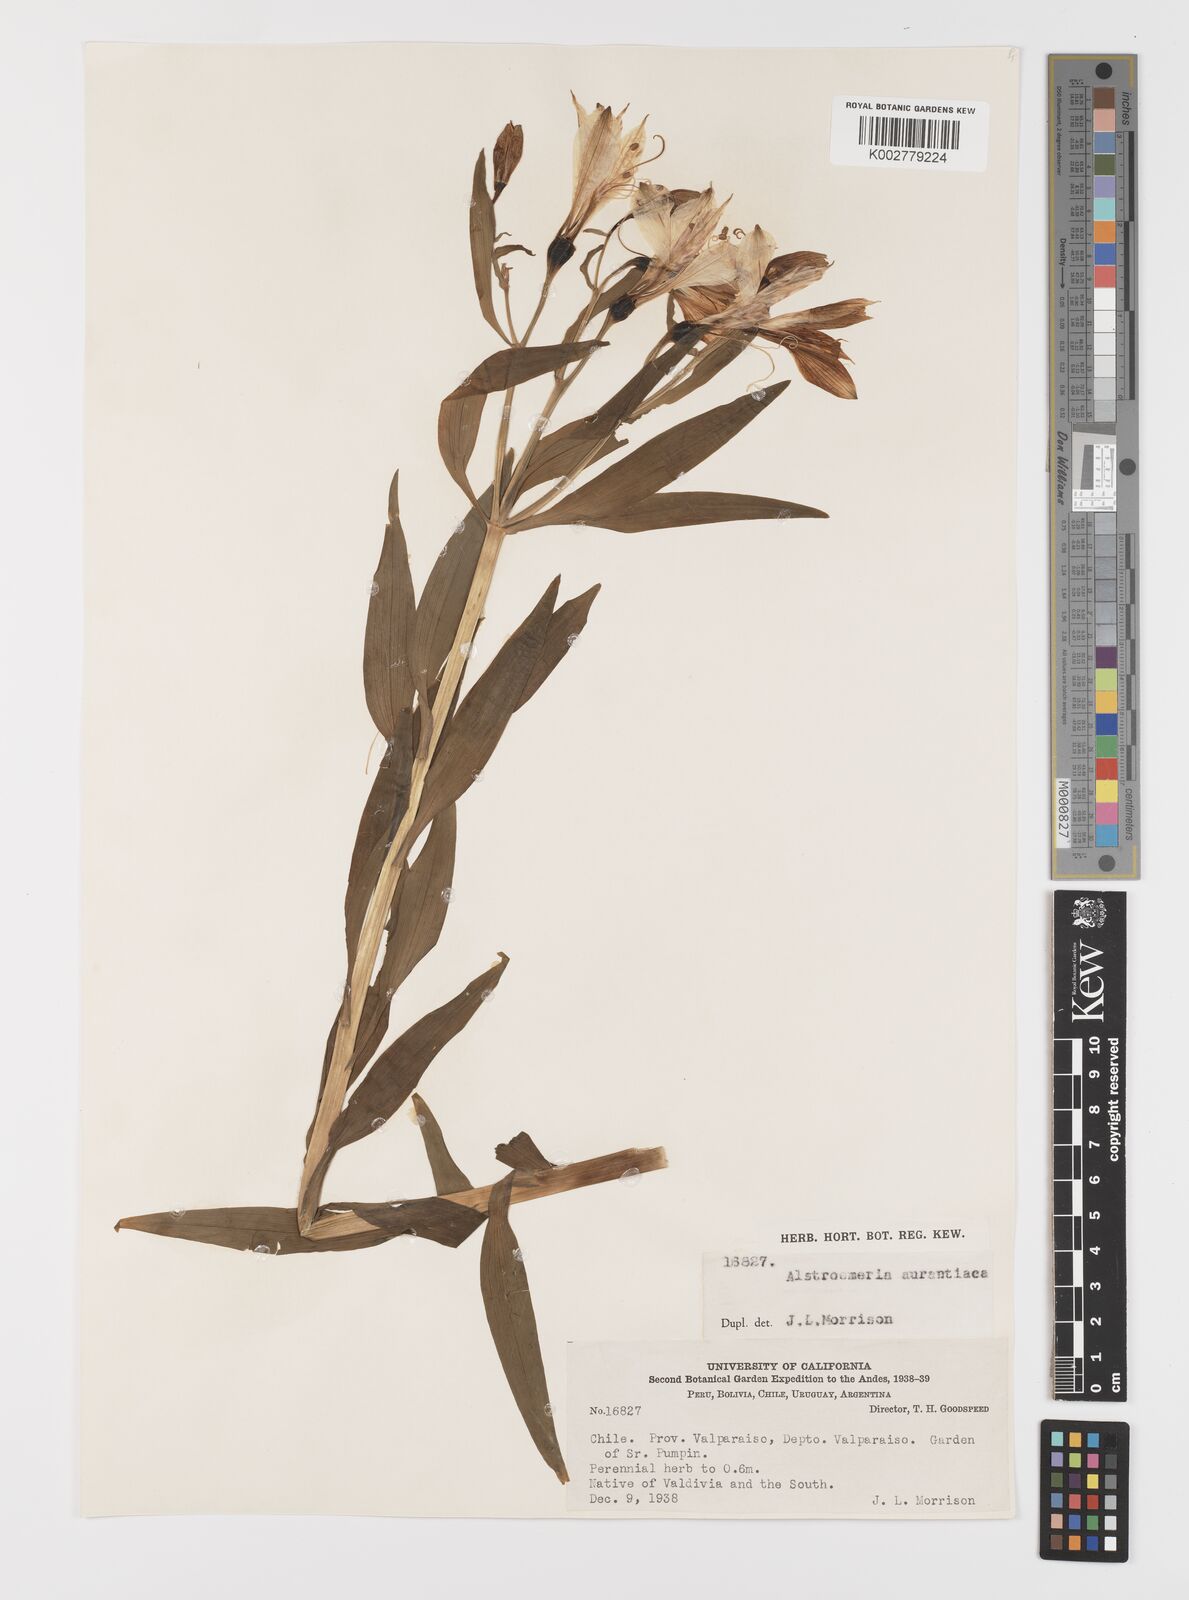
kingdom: Plantae
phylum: Tracheophyta
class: Liliopsida
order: Liliales
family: Alstroemeriaceae
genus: Alstroemeria
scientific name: Alstroemeria aurea
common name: Peruvian lily
